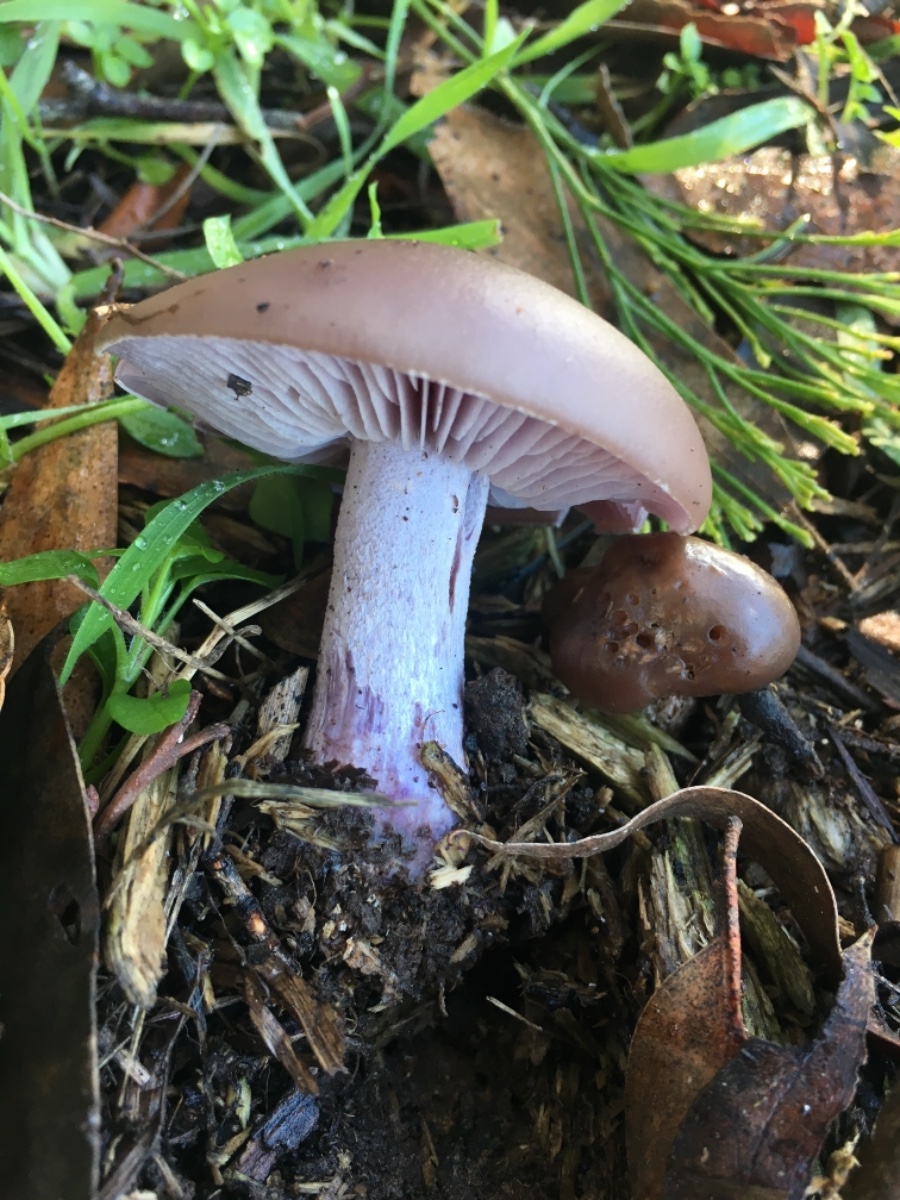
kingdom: Fungi
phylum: Basidiomycota
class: Agaricomycetes
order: Agaricales
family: Tricholomataceae
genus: Lepista
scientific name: Lepista nuda
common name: violet hekseringshat
